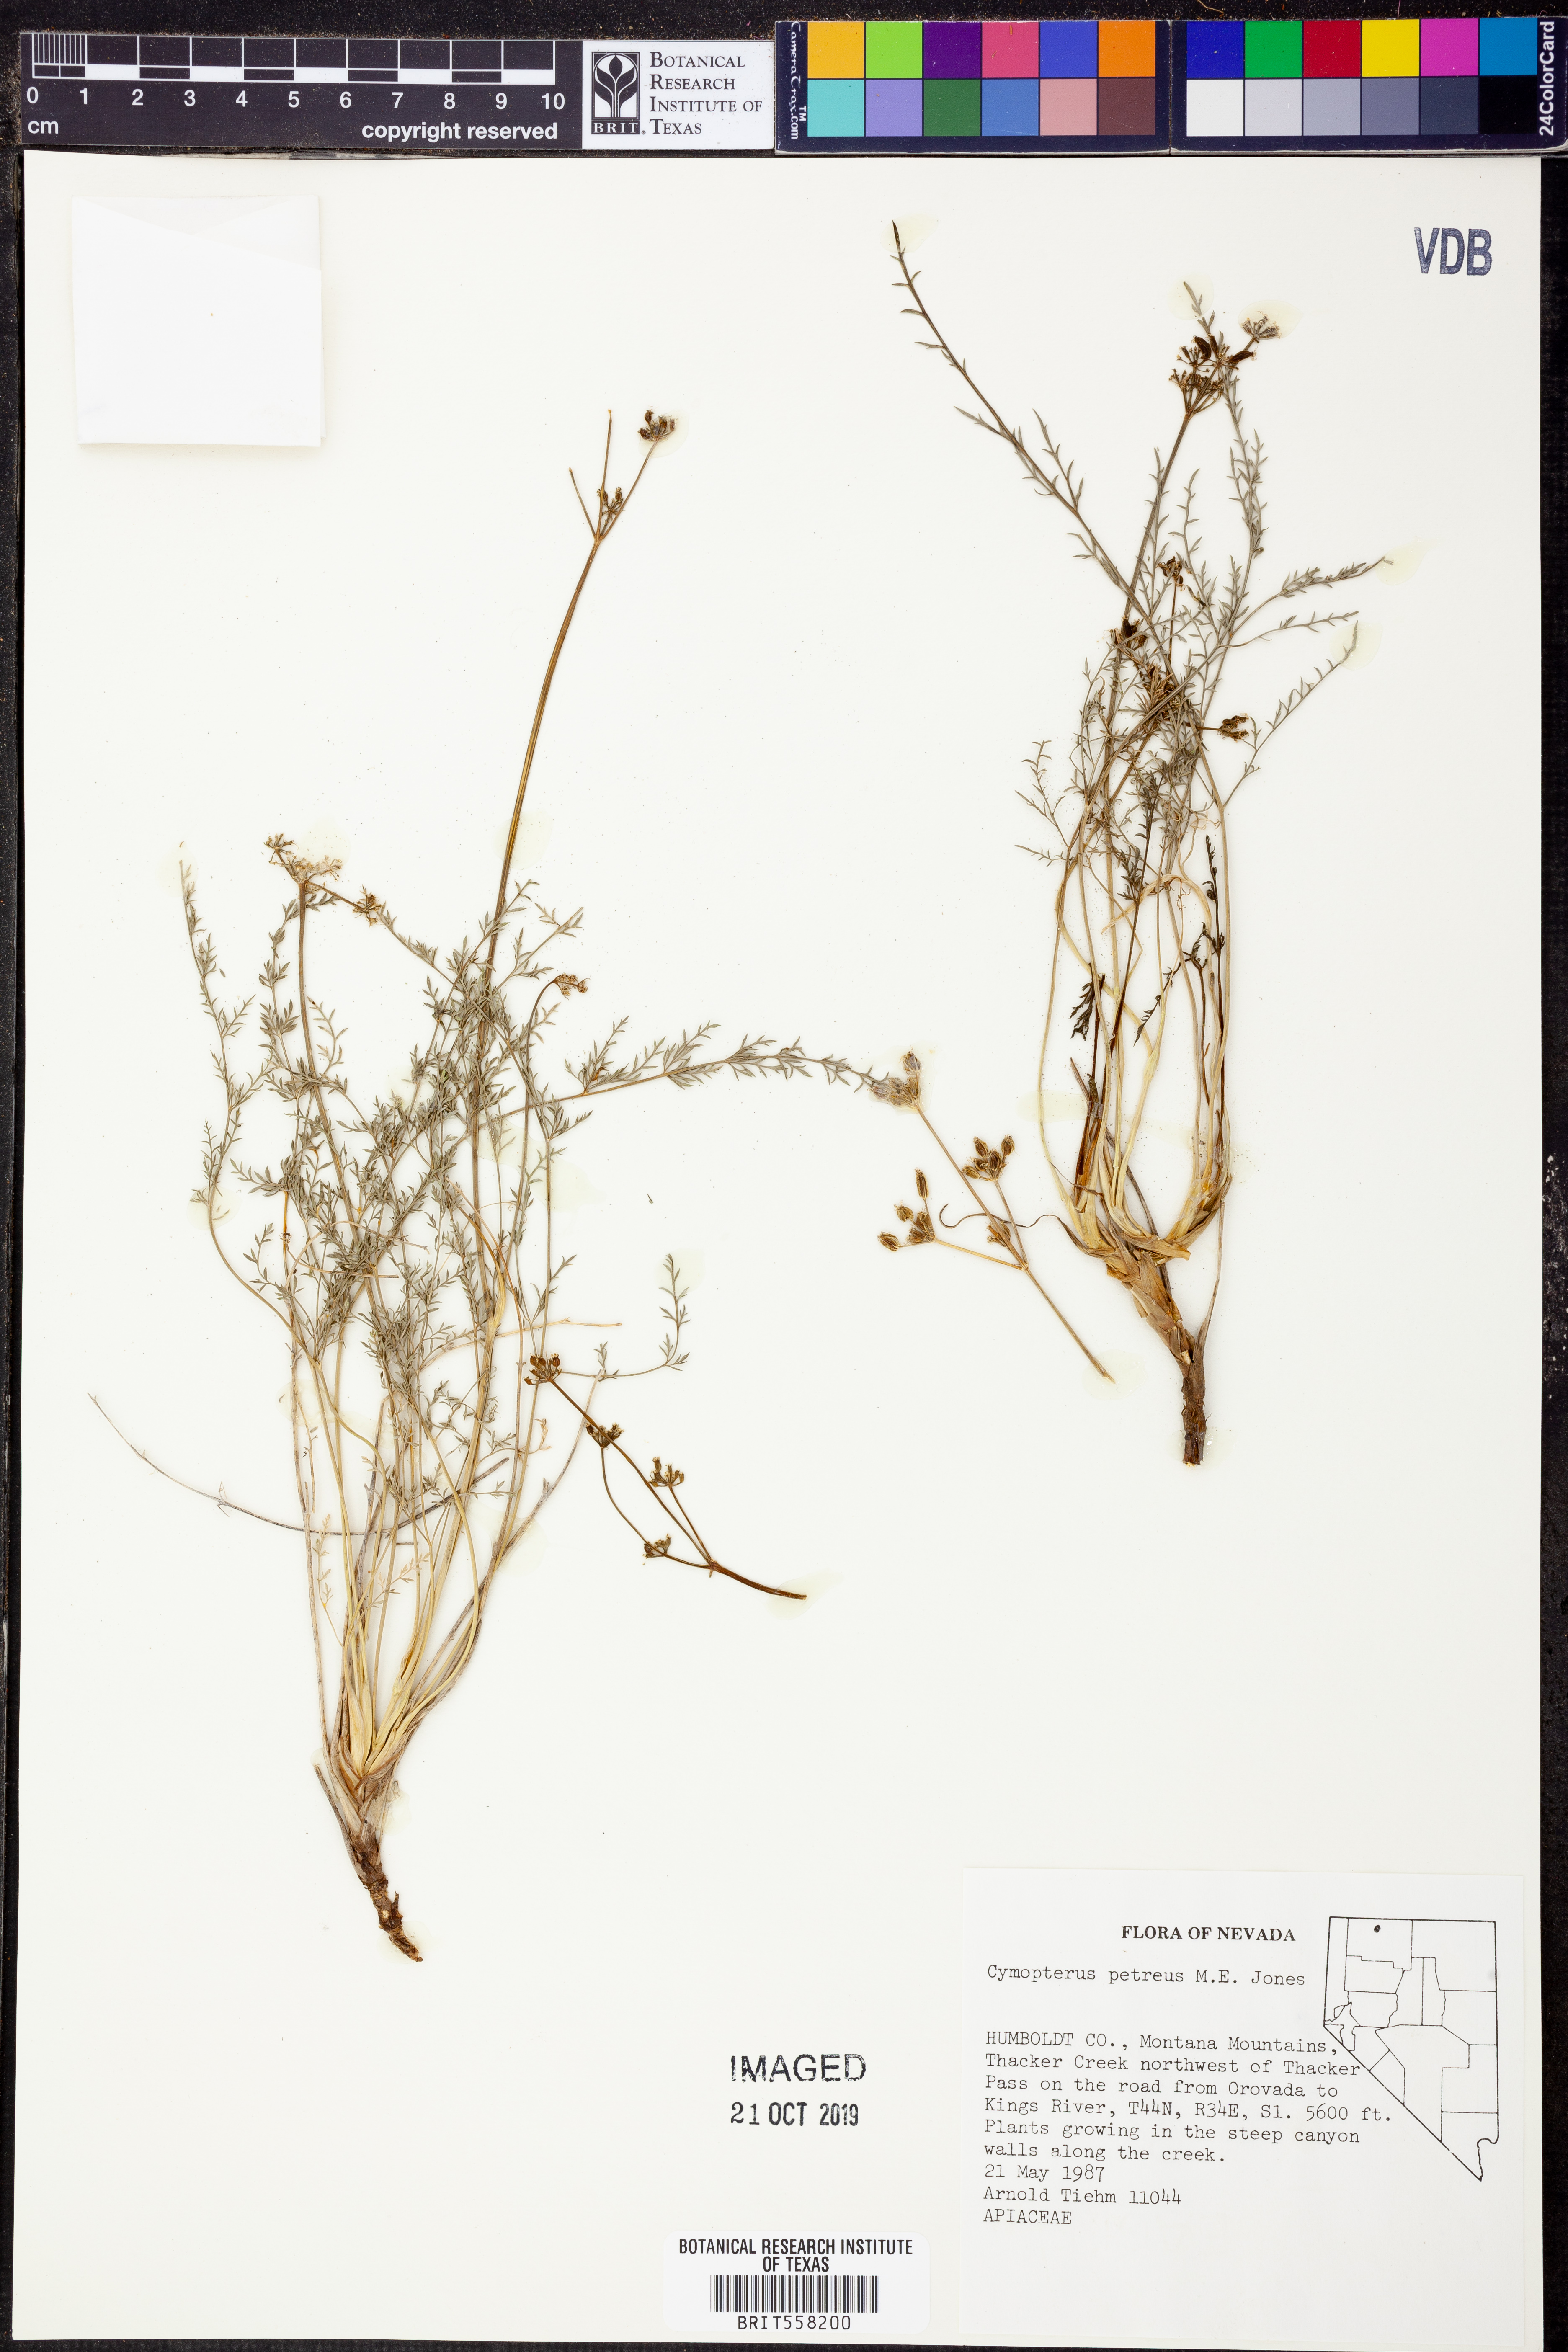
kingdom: Plantae
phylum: Tracheophyta
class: Magnoliopsida
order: Apiales
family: Apiaceae
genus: Pteryxia
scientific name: Pteryxia petraea
